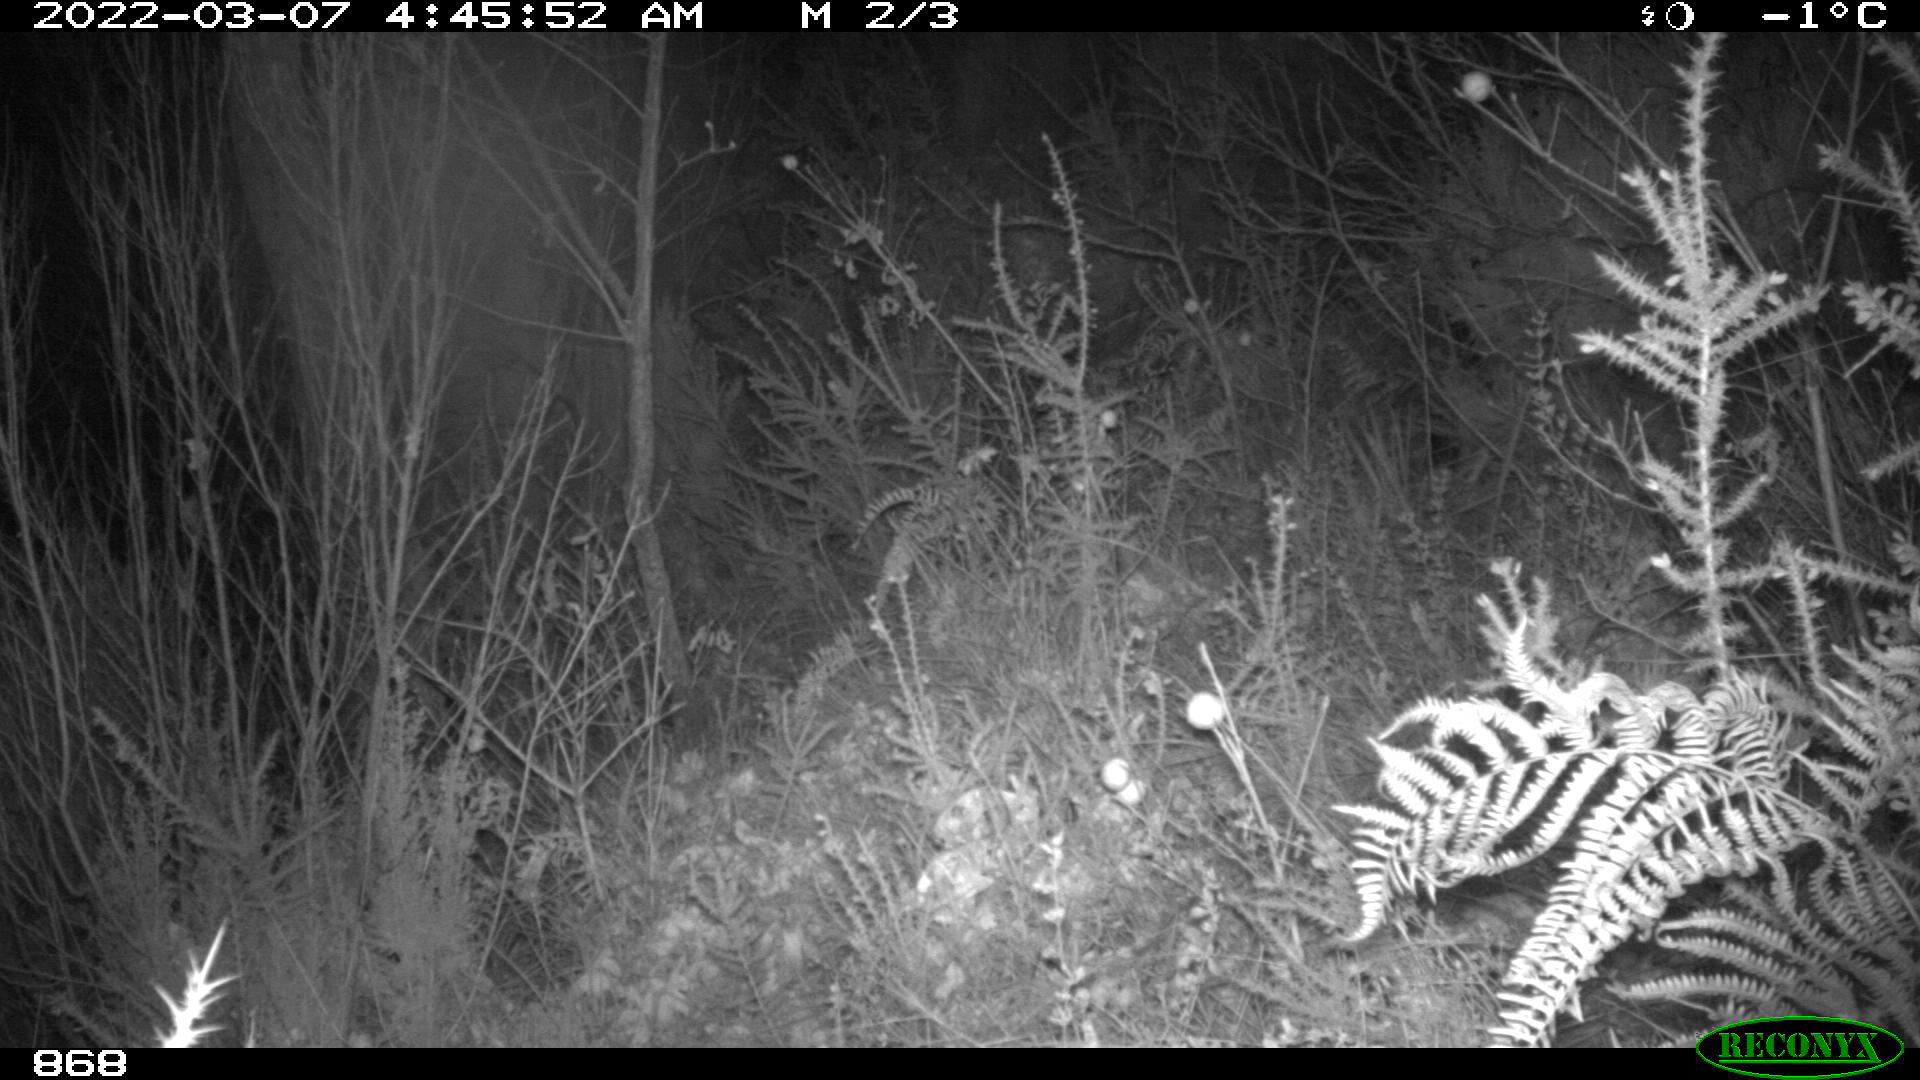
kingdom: Animalia
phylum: Chordata
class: Mammalia
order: Artiodactyla
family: Suidae
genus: Sus
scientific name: Sus scrofa
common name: Wild boar
